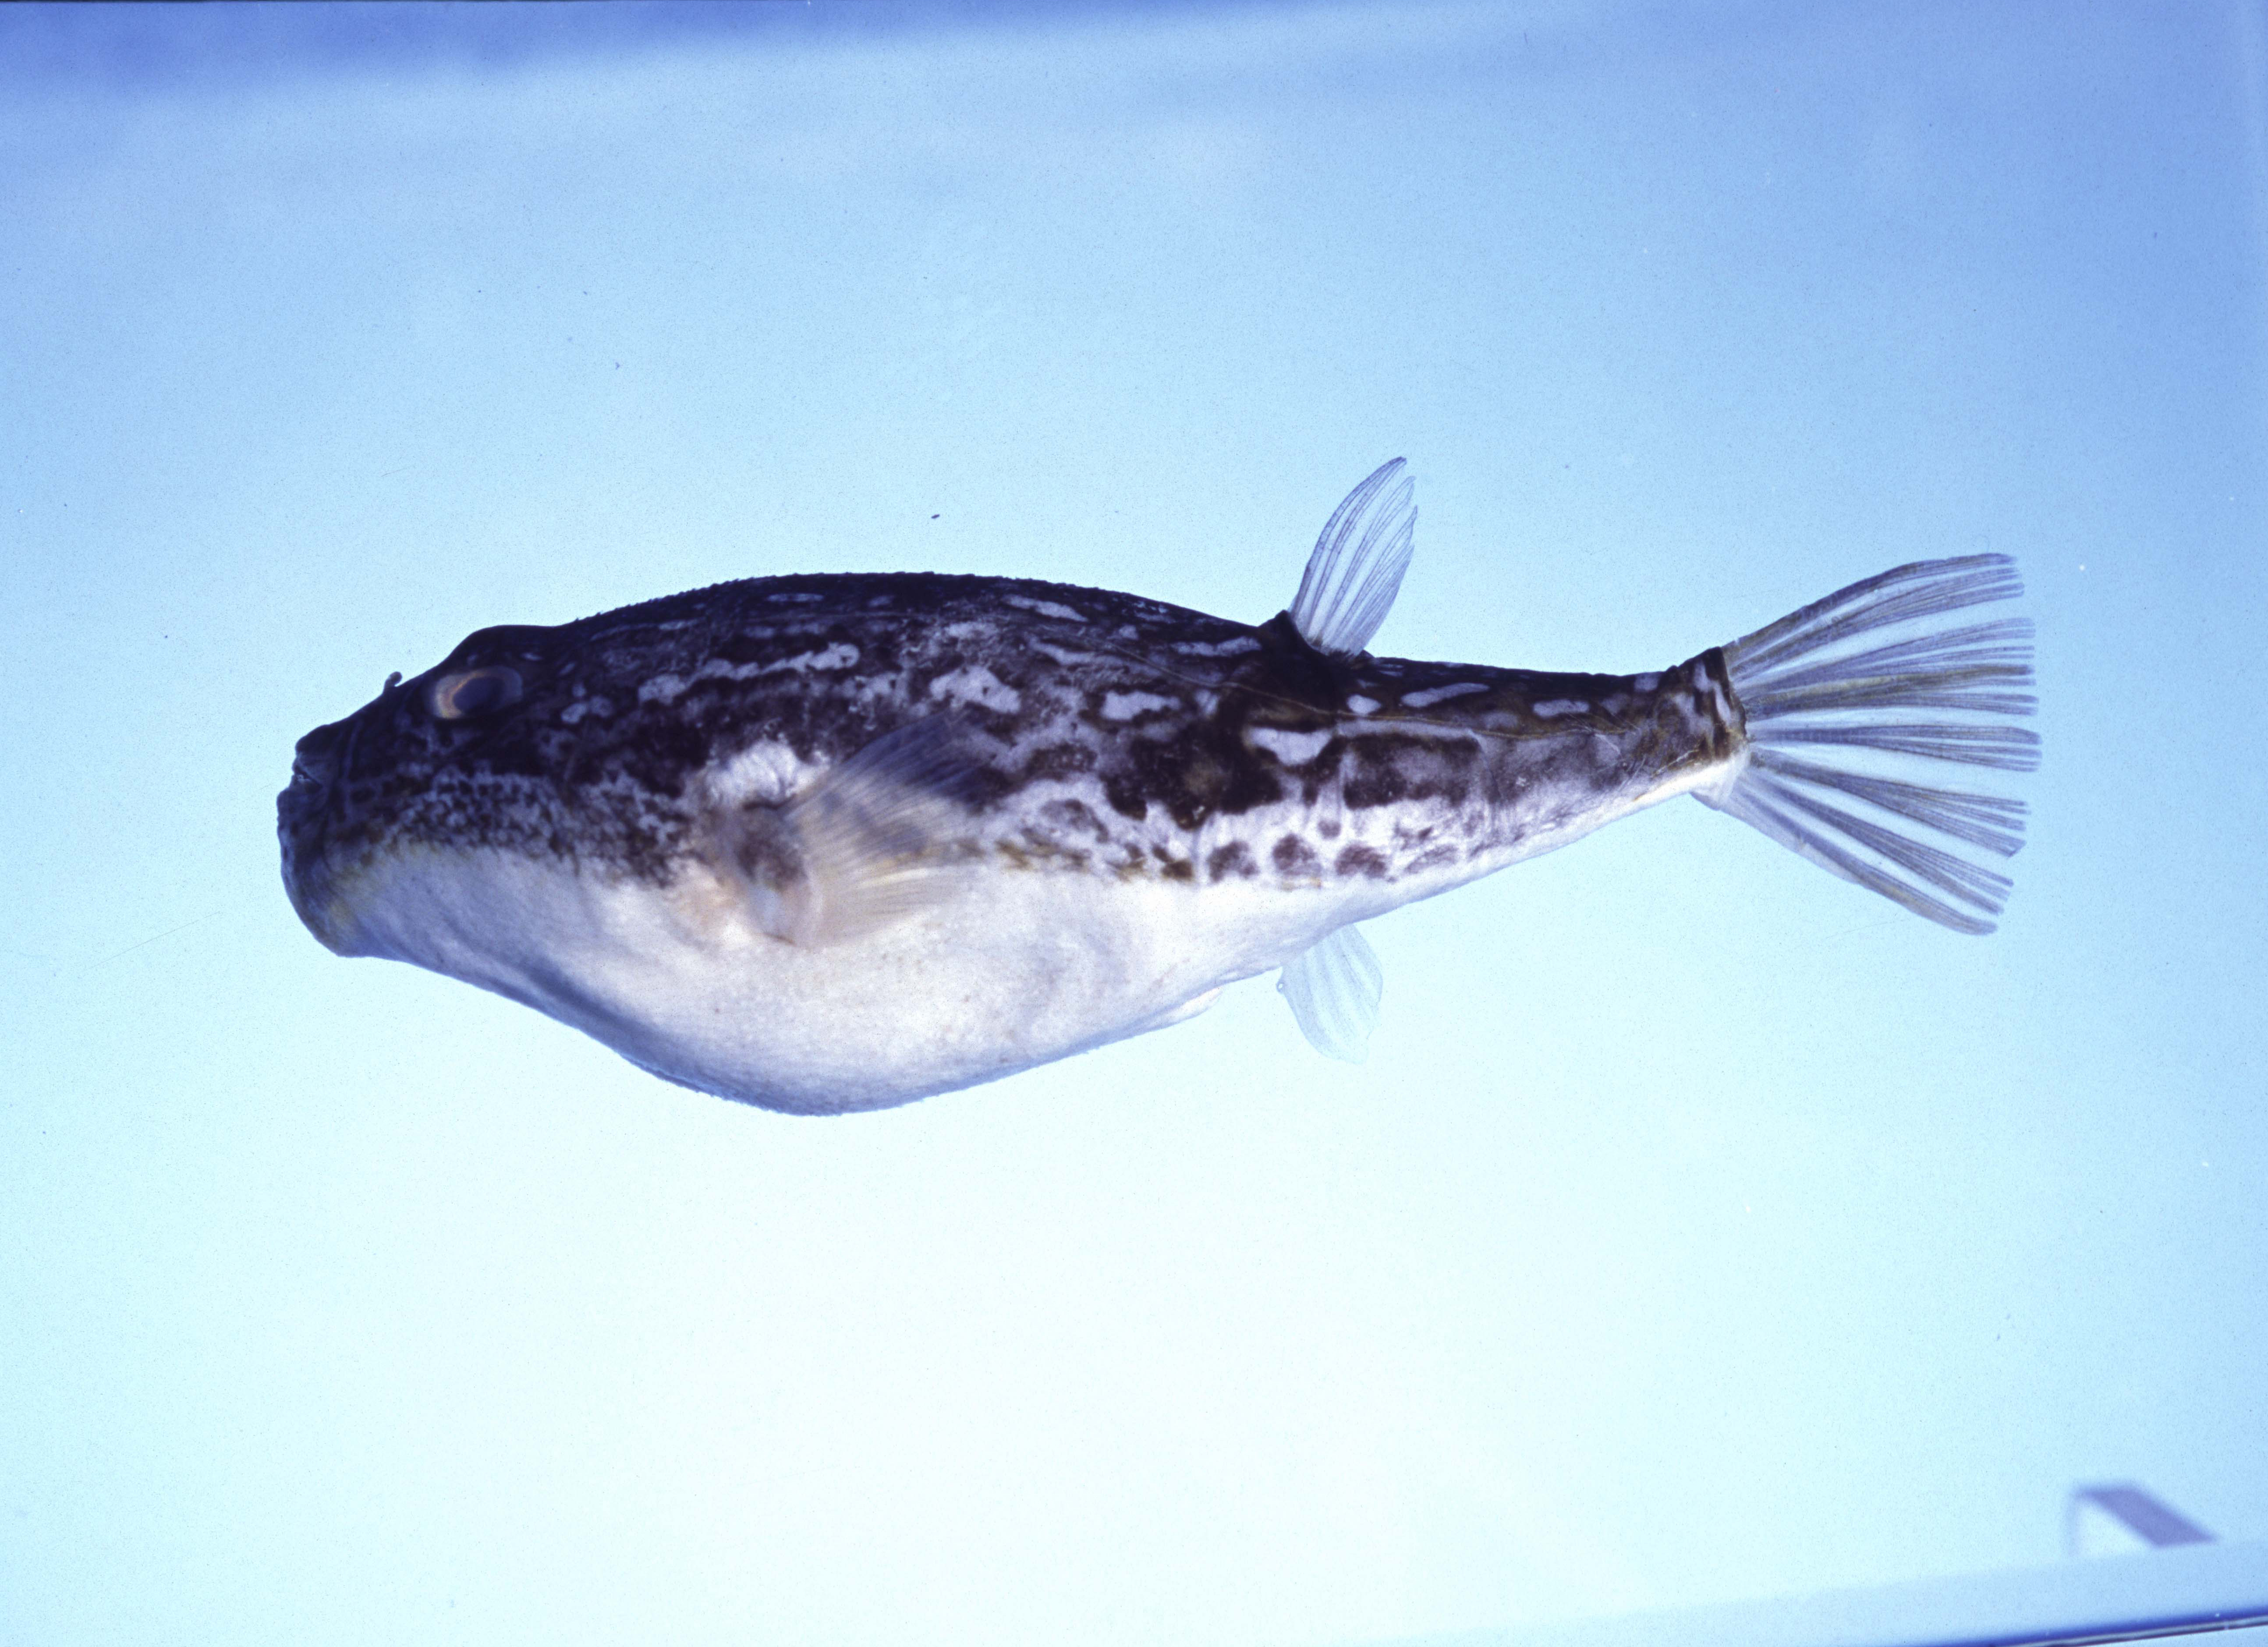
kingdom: Animalia
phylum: Chordata
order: Tetraodontiformes
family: Tetraodontidae
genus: Torquigener
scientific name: Torquigener
